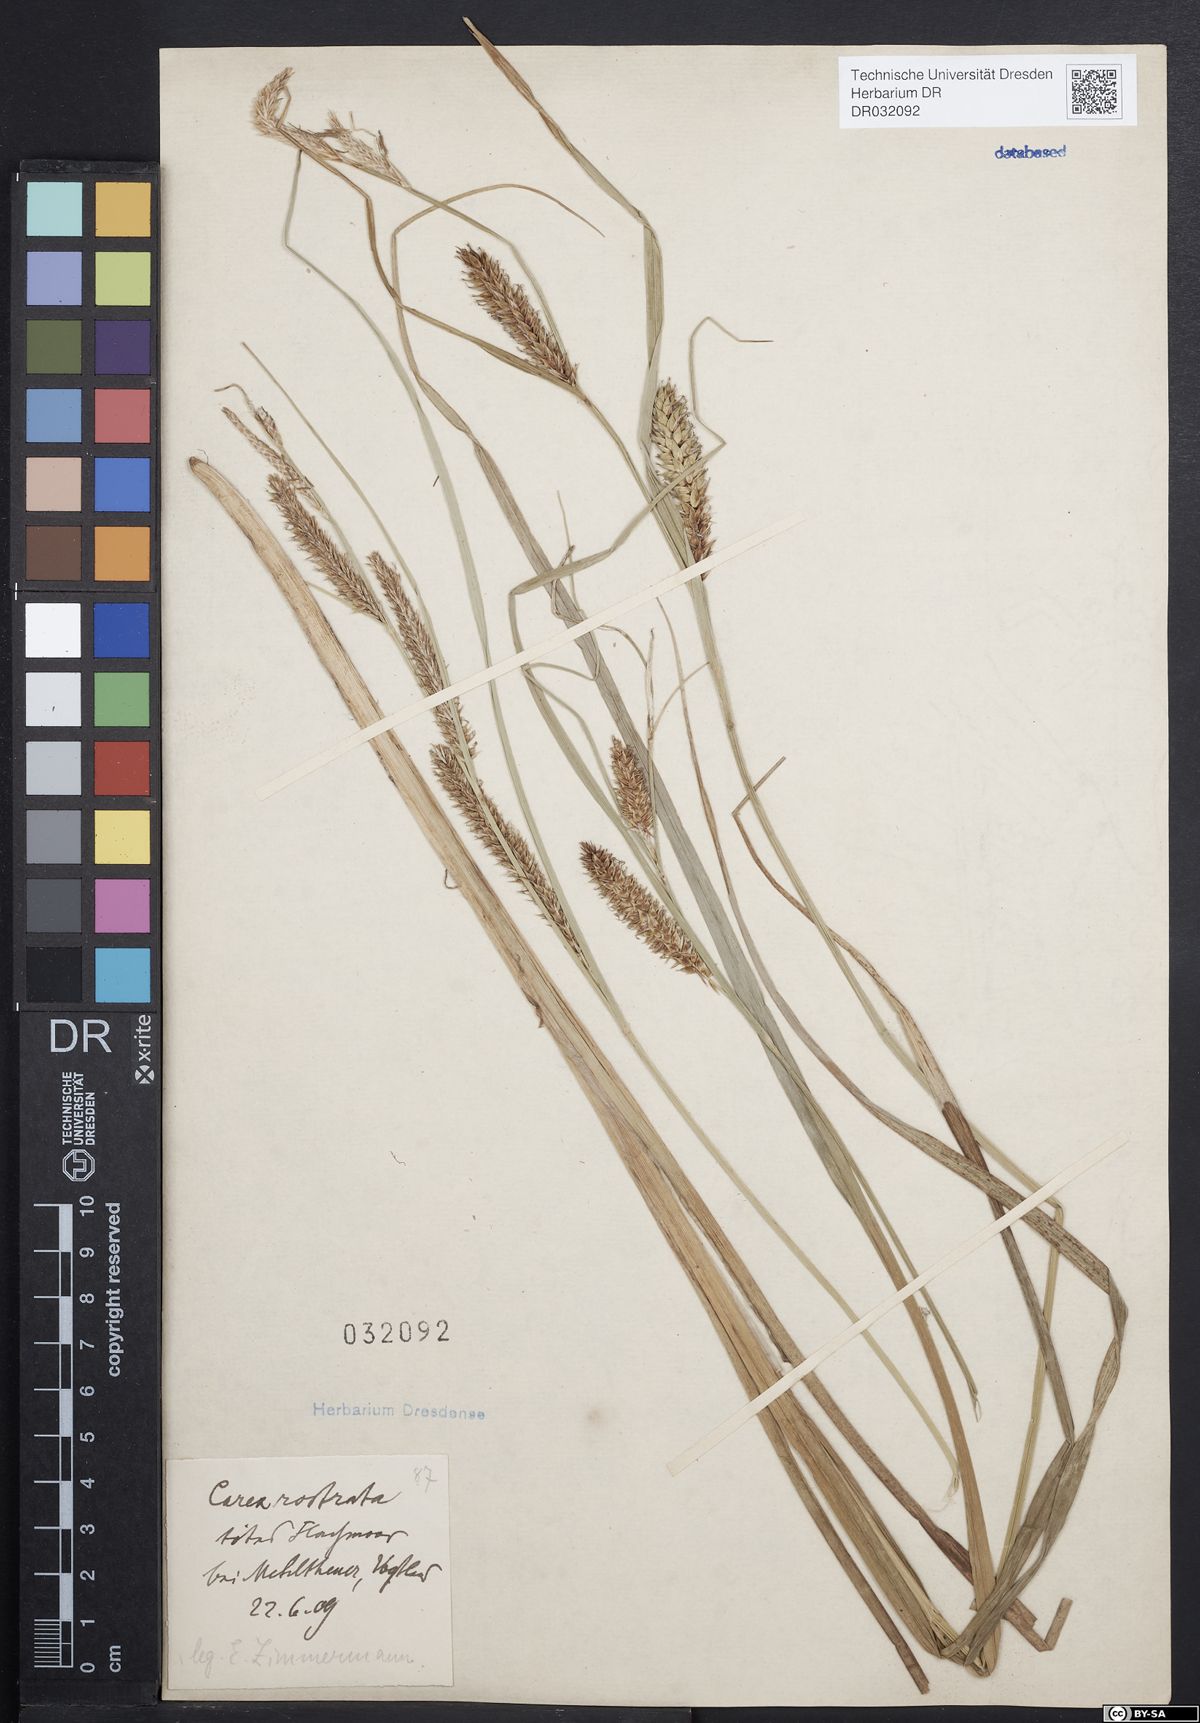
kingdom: Plantae
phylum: Tracheophyta
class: Liliopsida
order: Poales
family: Cyperaceae
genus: Carex
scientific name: Carex rostrata
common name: Bottle sedge
